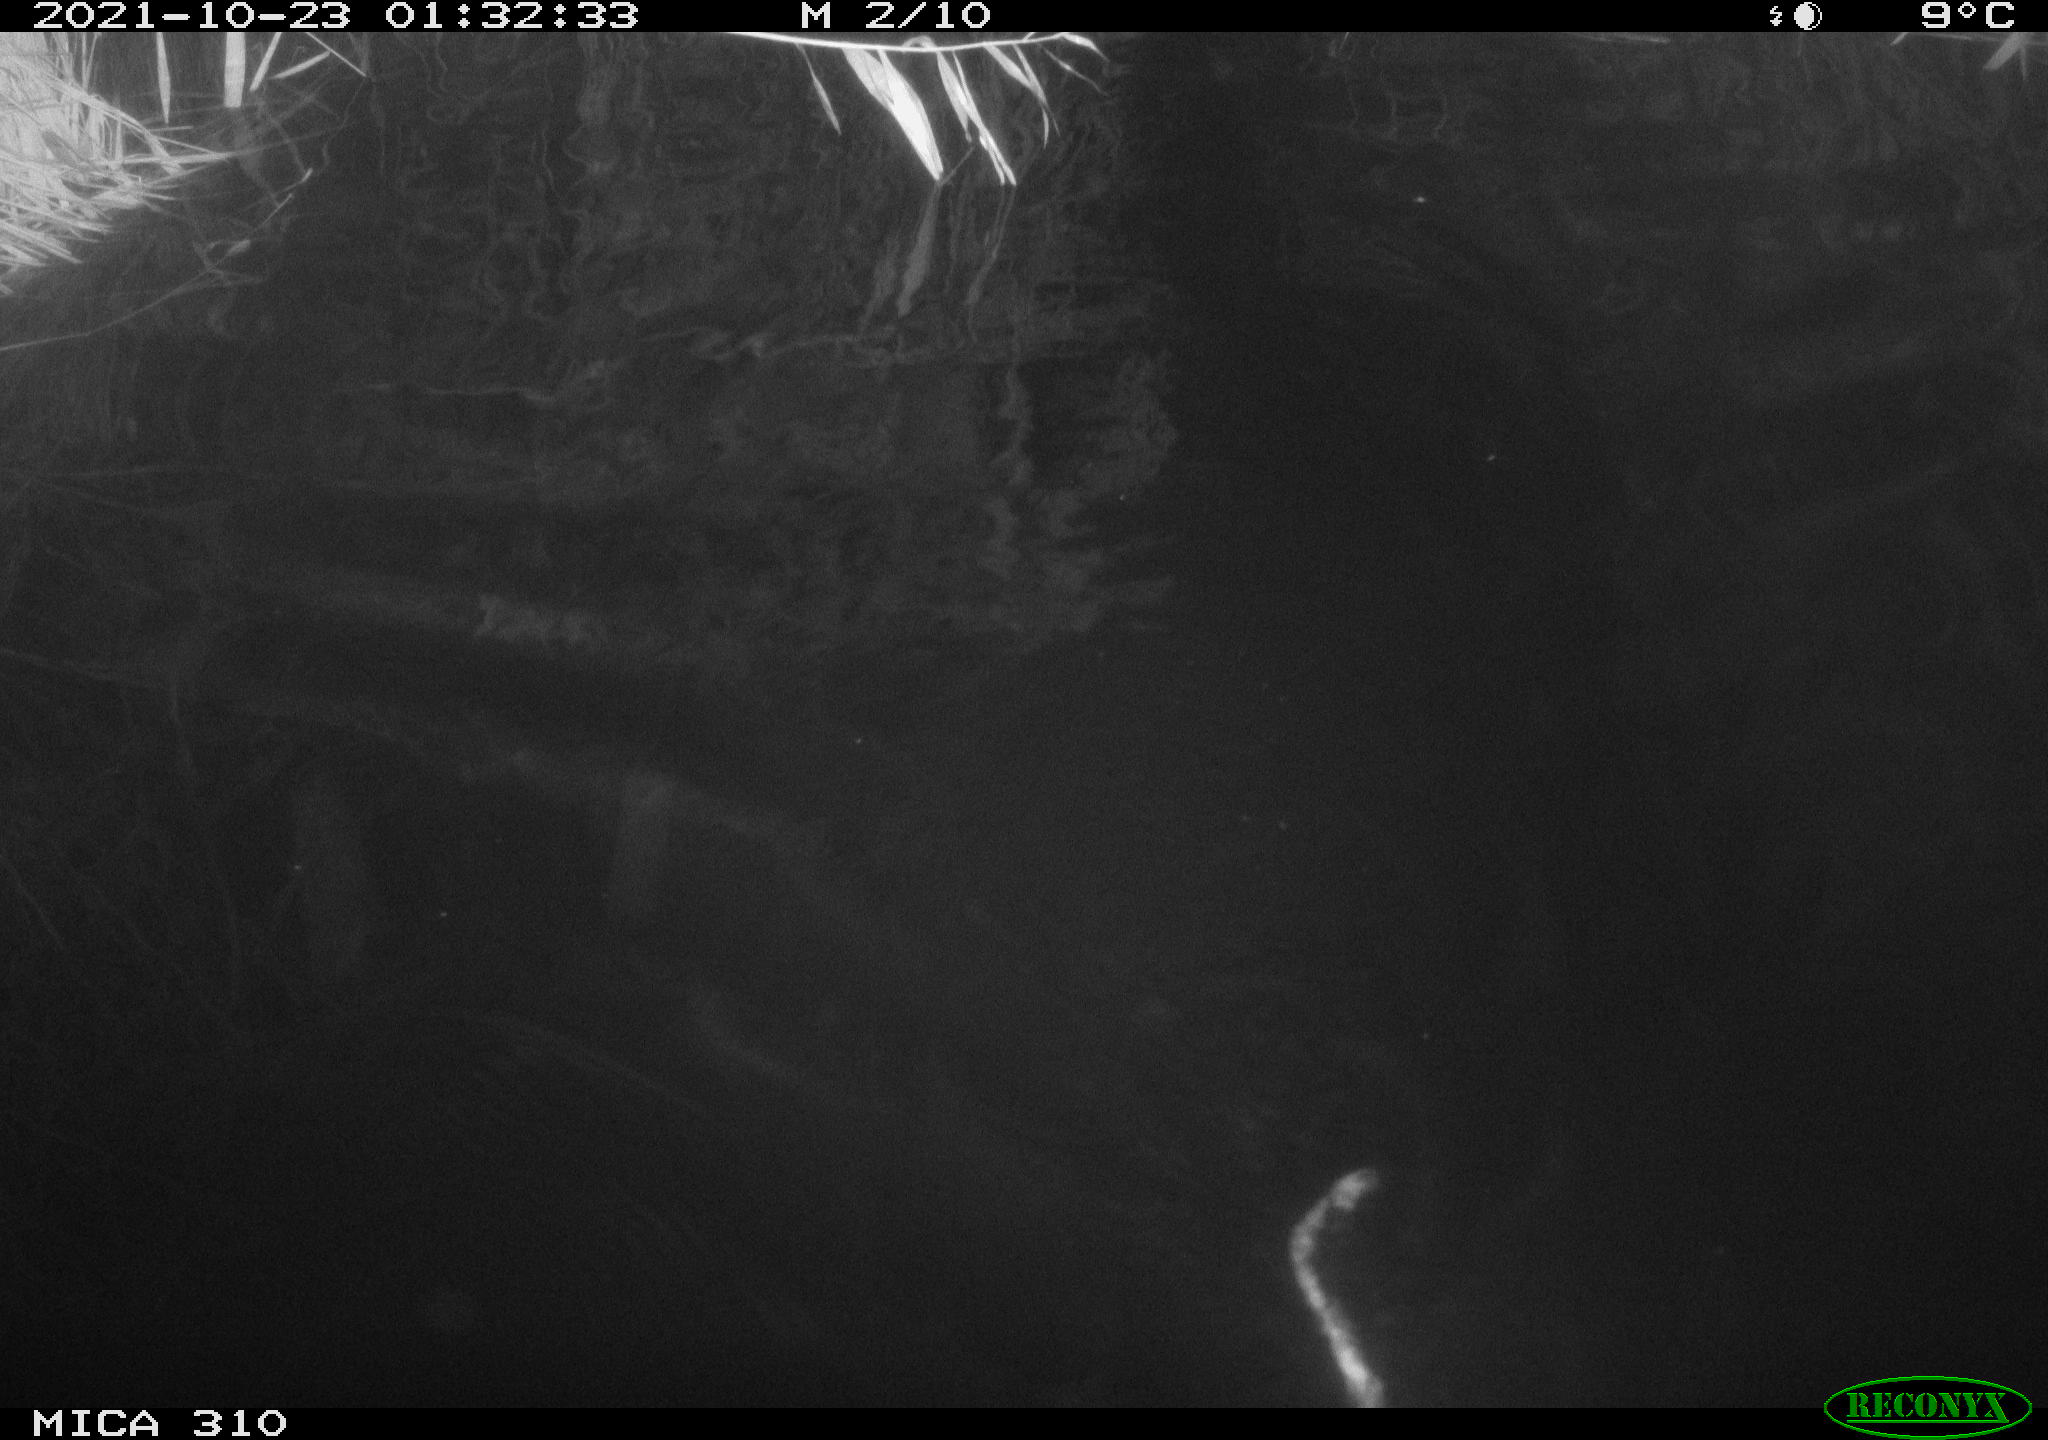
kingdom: Animalia
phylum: Chordata
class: Mammalia
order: Rodentia
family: Cricetidae
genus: Ondatra
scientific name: Ondatra zibethicus
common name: Muskrat
